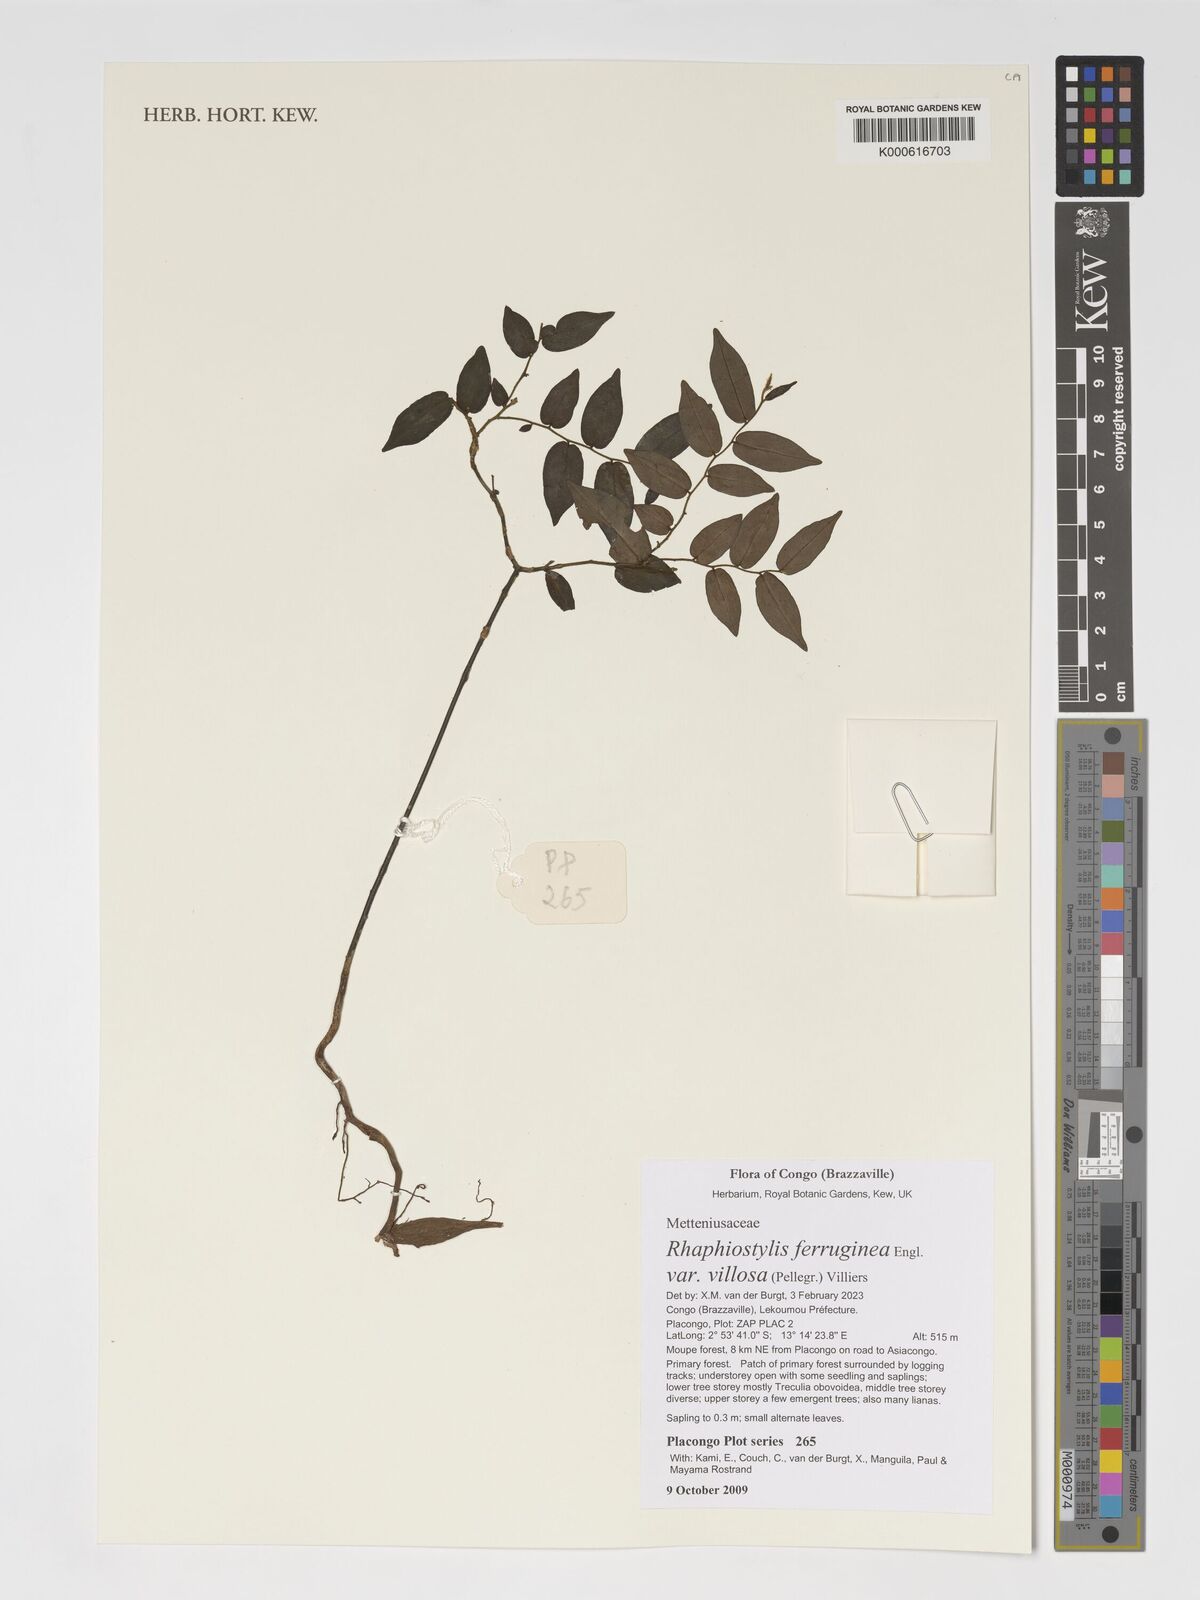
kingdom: Plantae
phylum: Tracheophyta
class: Magnoliopsida
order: Metteniusales
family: Metteniusaceae
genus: Rhaphiostylis
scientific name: Rhaphiostylis ferruginea
